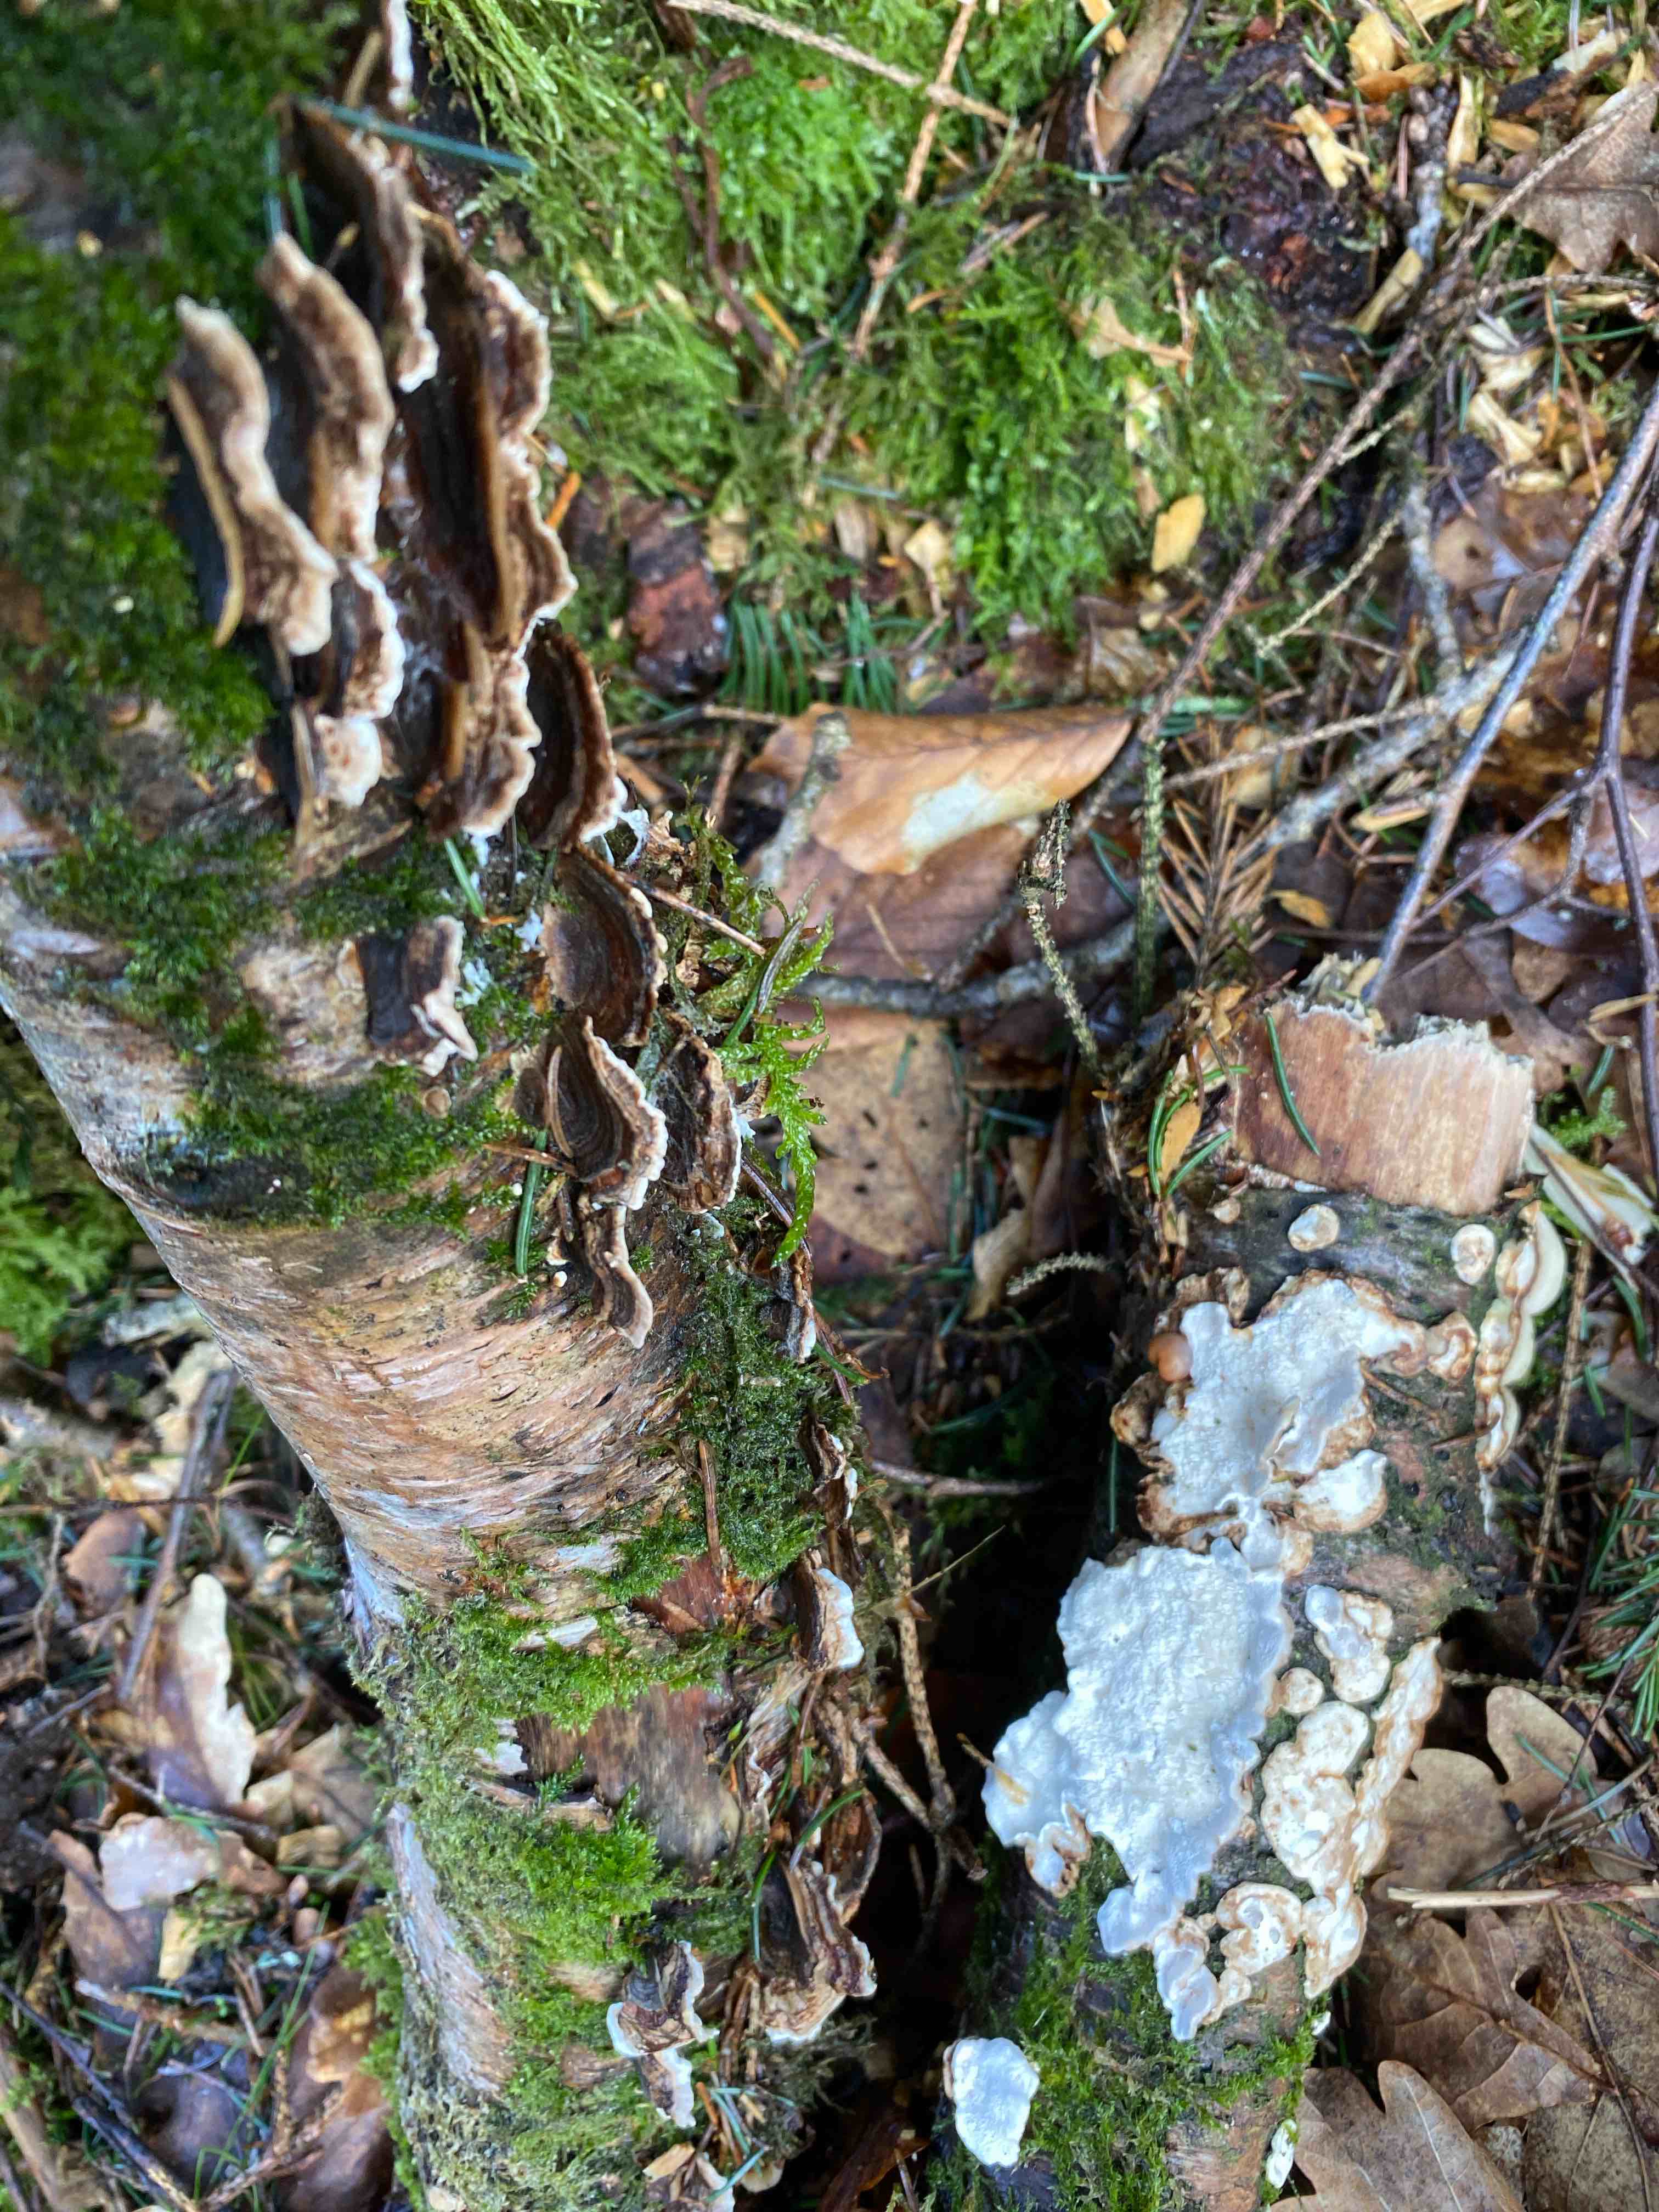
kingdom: Fungi
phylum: Basidiomycota
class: Agaricomycetes
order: Polyporales
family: Polyporaceae
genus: Trametes
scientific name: Trametes versicolor
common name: broget læderporesvamp
